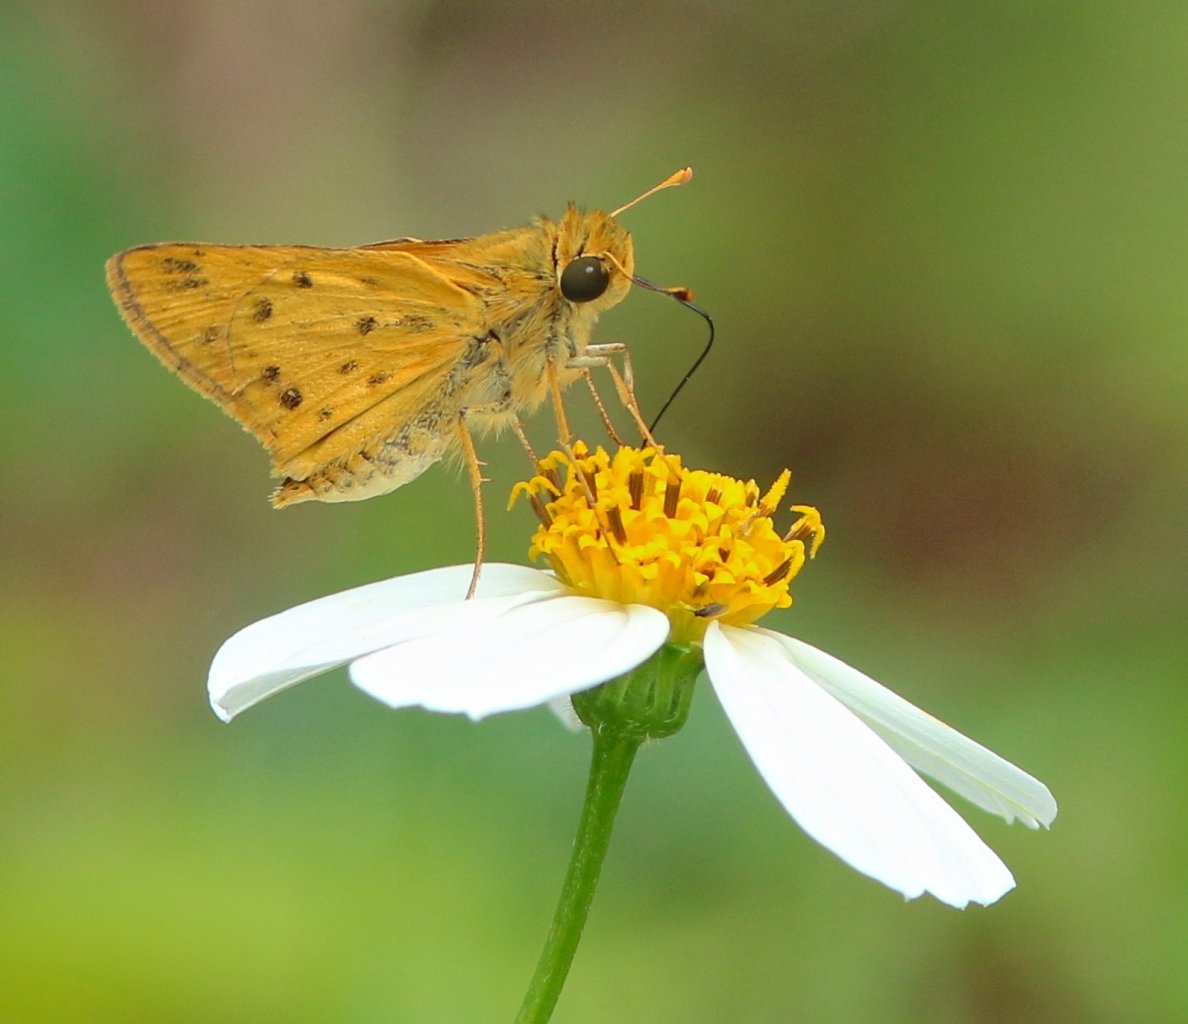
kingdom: Animalia
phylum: Arthropoda
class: Insecta
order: Lepidoptera
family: Hesperiidae
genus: Hylephila
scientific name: Hylephila phyleus
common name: Fiery Skipper
